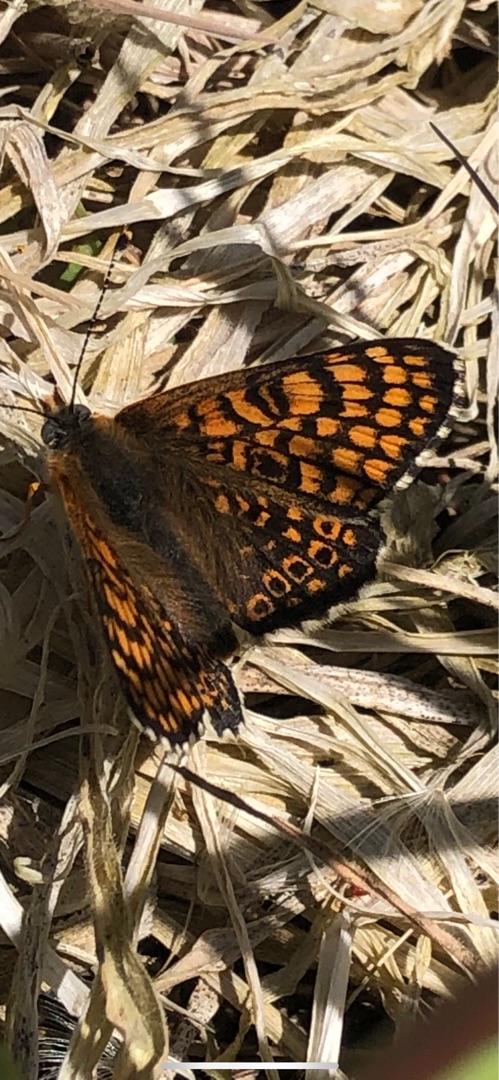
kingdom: Animalia
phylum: Arthropoda
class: Insecta
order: Lepidoptera
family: Nymphalidae
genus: Melitaea
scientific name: Melitaea cinxia
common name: Okkergul pletvinge
